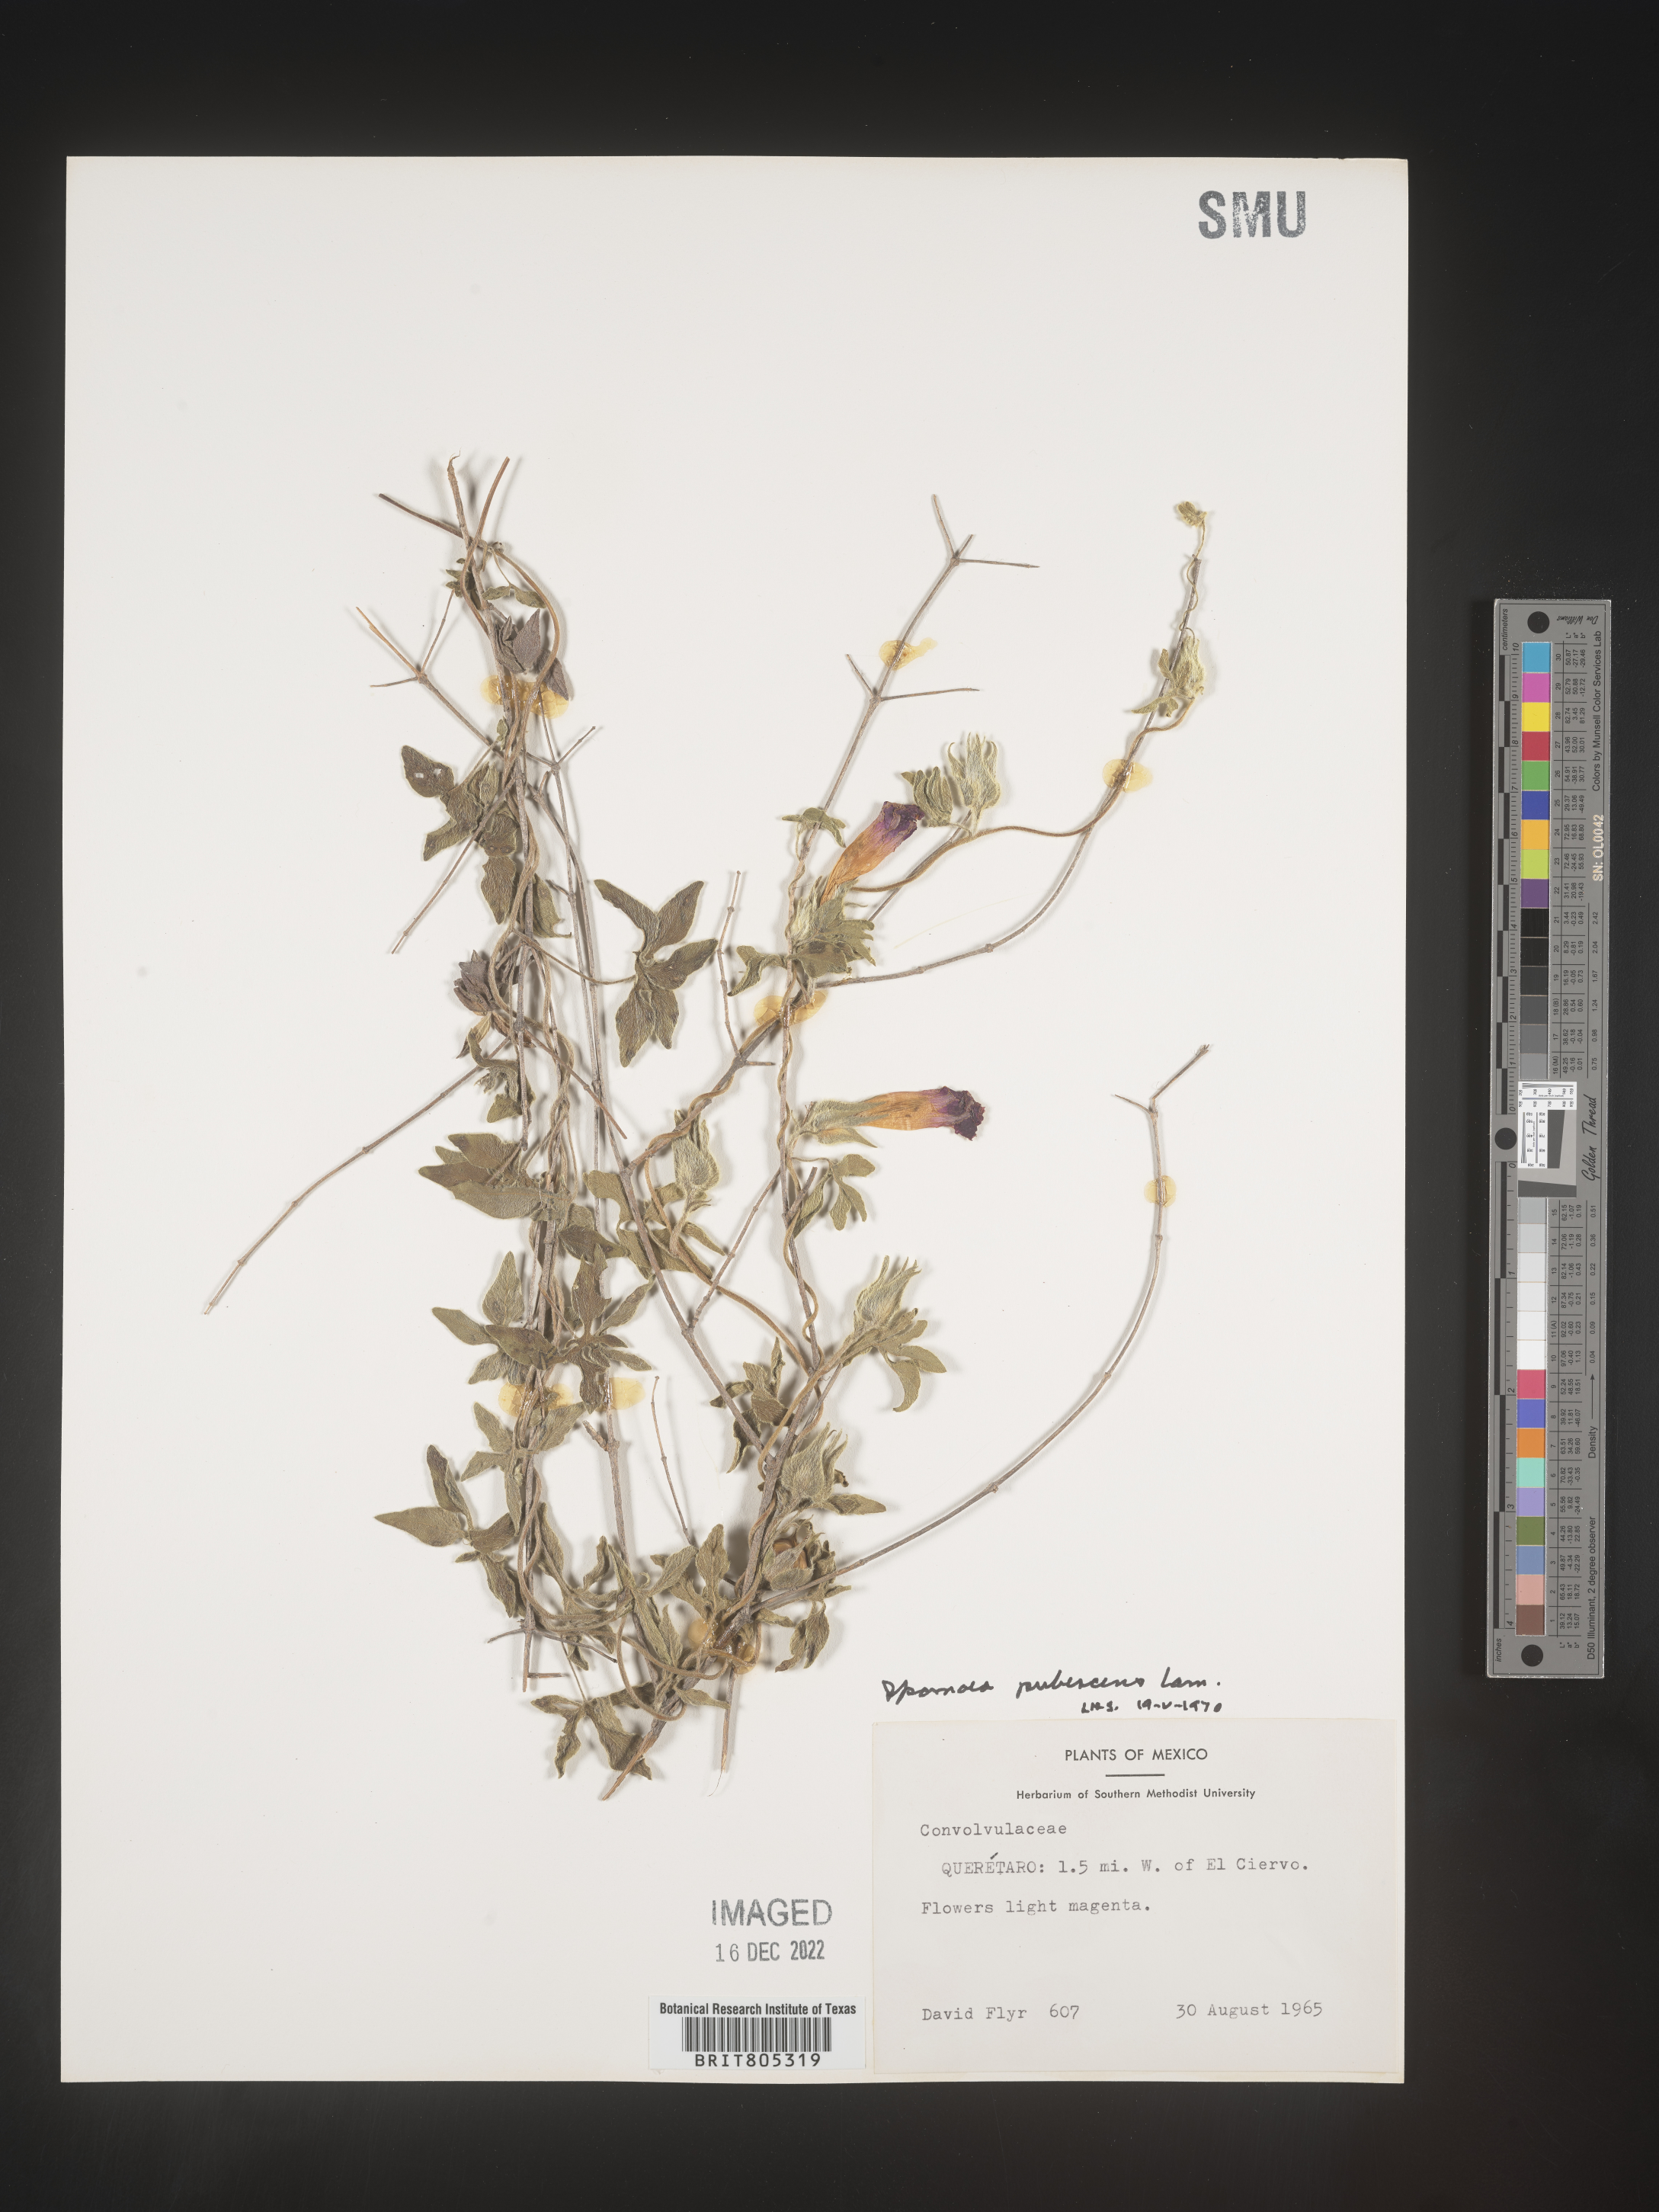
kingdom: Plantae
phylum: Tracheophyta
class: Magnoliopsida
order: Solanales
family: Convolvulaceae
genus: Ipomoea
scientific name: Ipomoea
